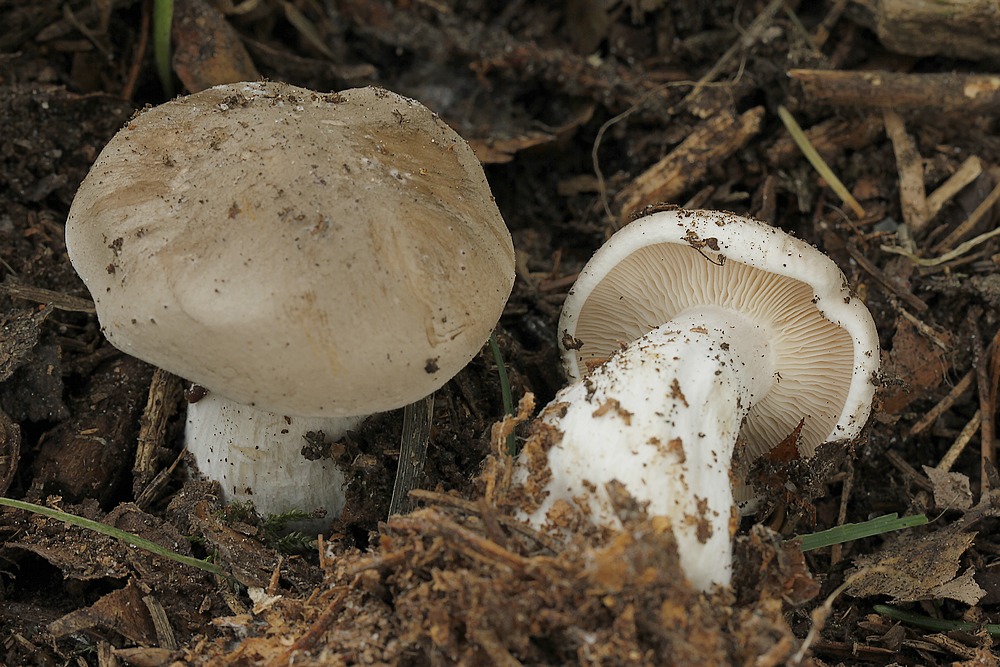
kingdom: Fungi
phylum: Basidiomycota
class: Agaricomycetes
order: Agaricales
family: Pseudoclitocybaceae
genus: Clitopaxillus
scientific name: Clitopaxillus fibulatus
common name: bestøvlet tragthat
